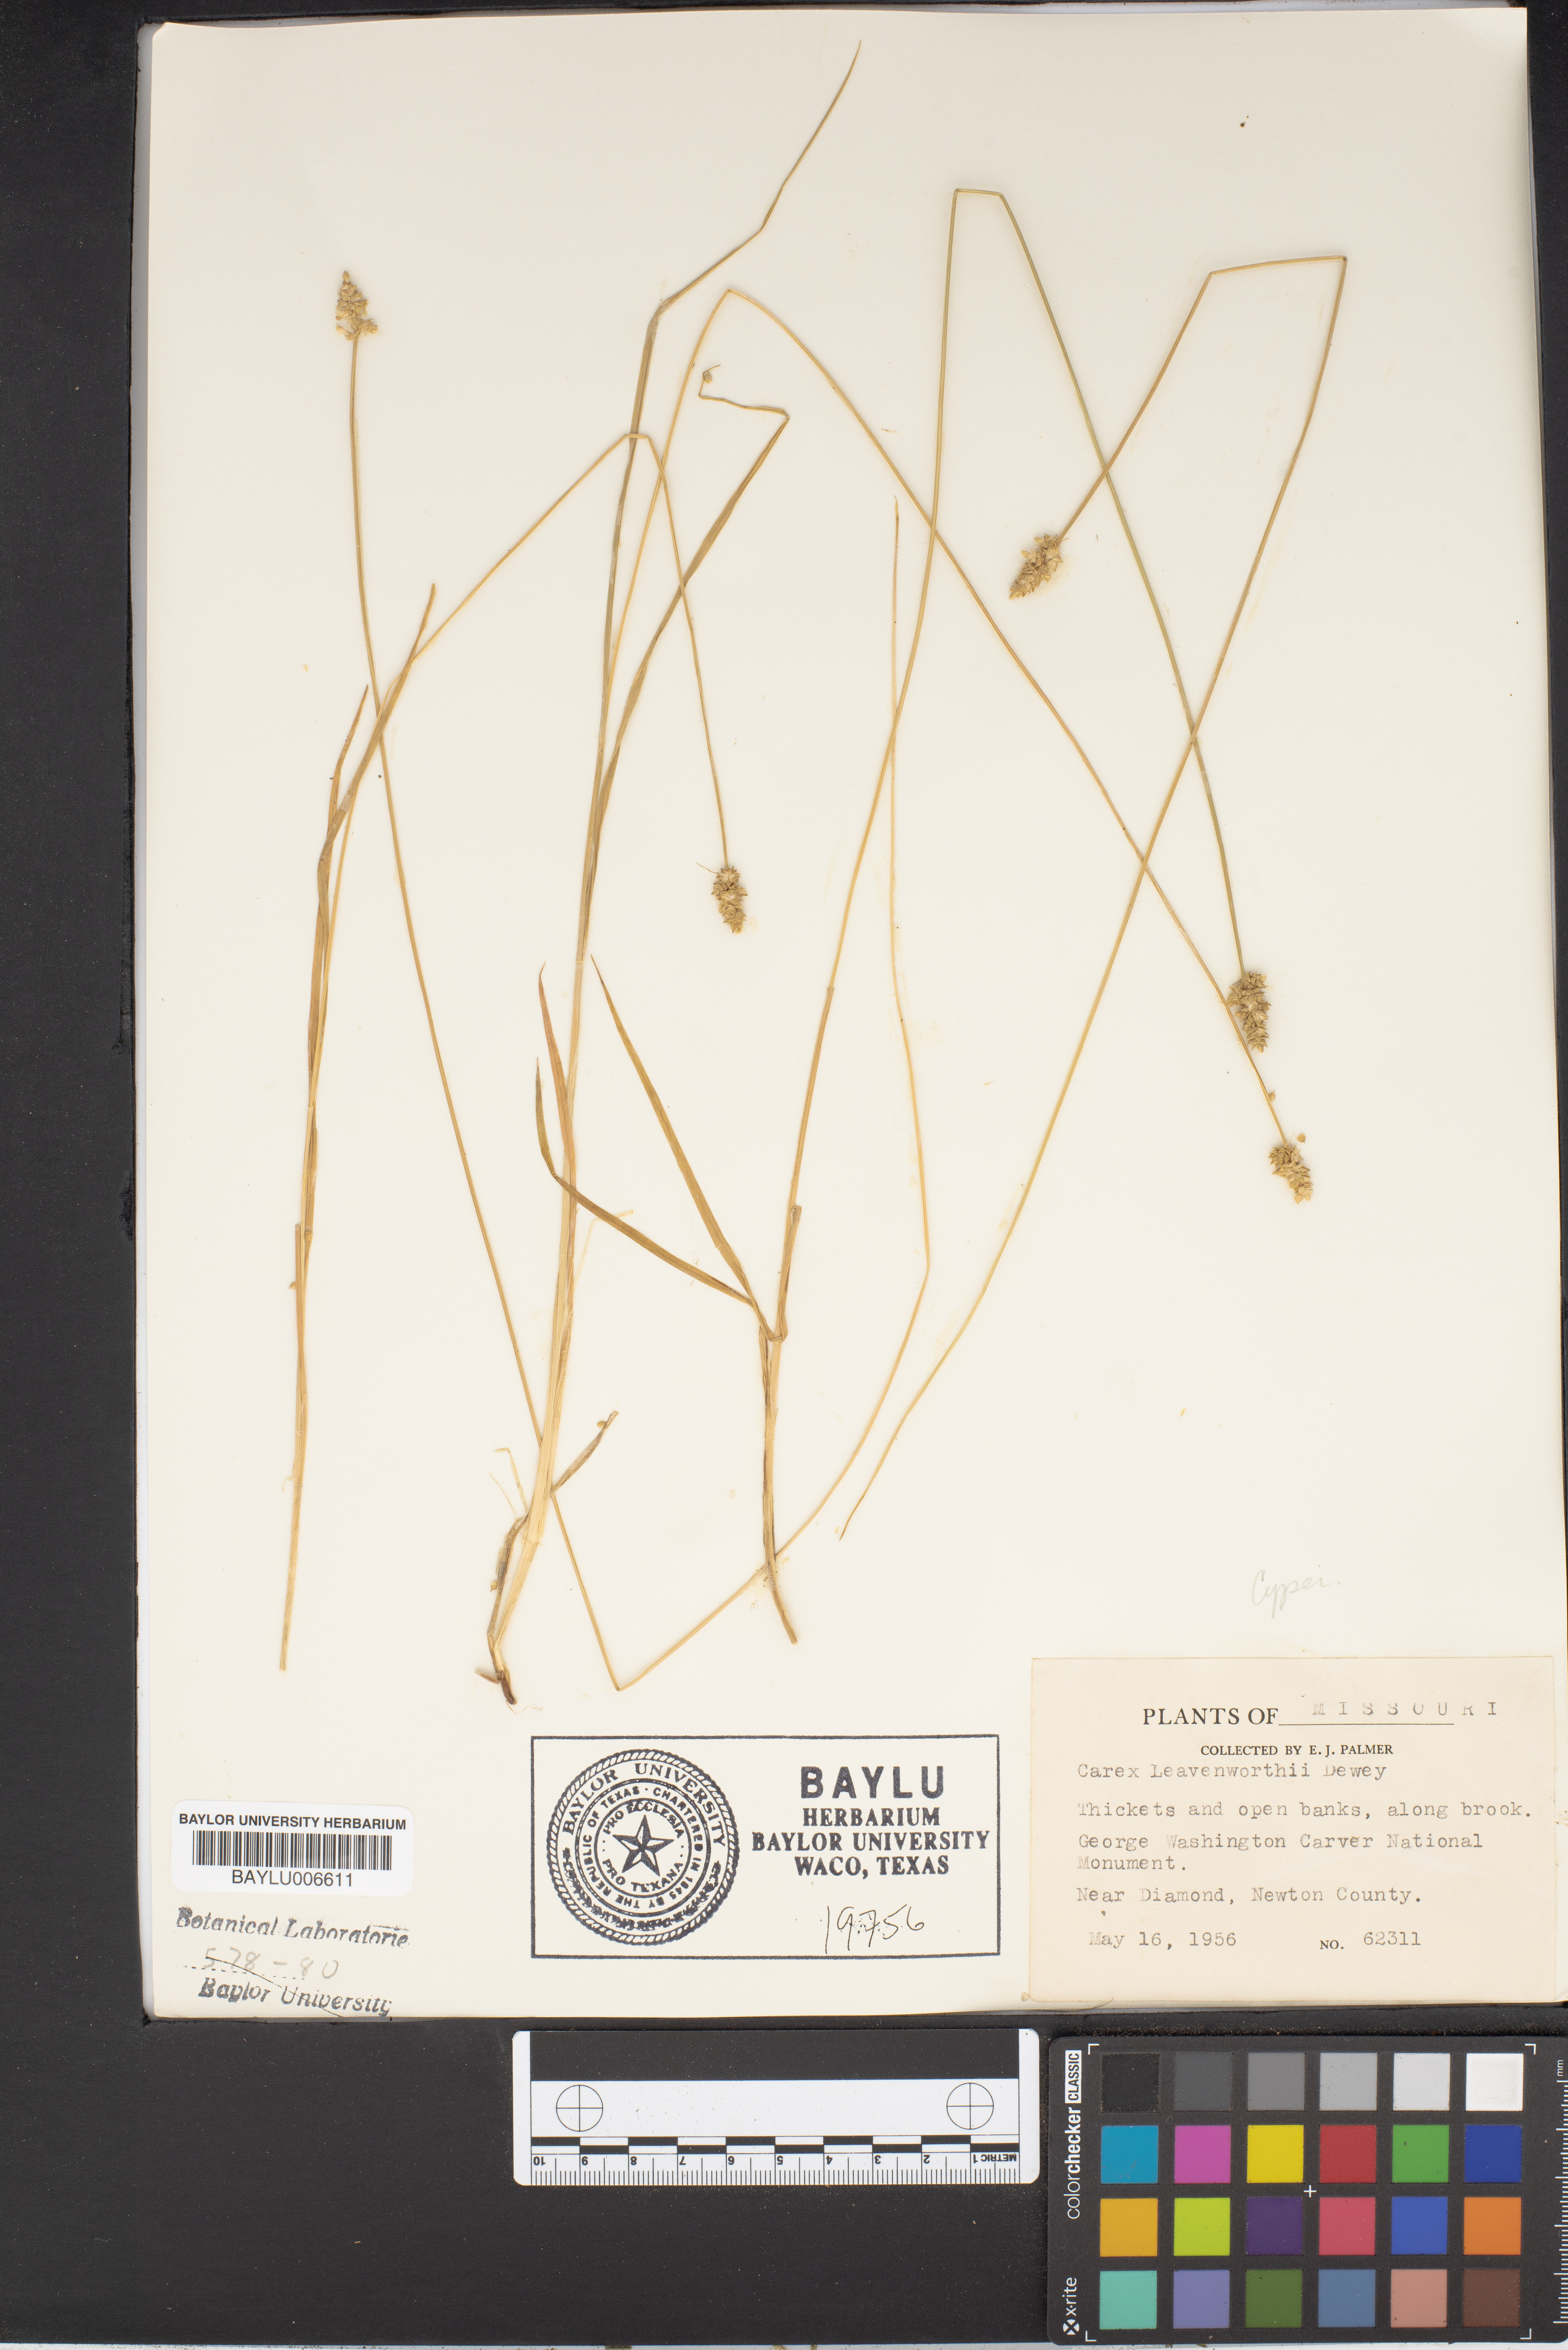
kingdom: Plantae
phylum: Tracheophyta
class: Liliopsida
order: Poales
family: Cyperaceae
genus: Carex
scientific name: Carex leavenworthii
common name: Leavenworth's bracted sedge
